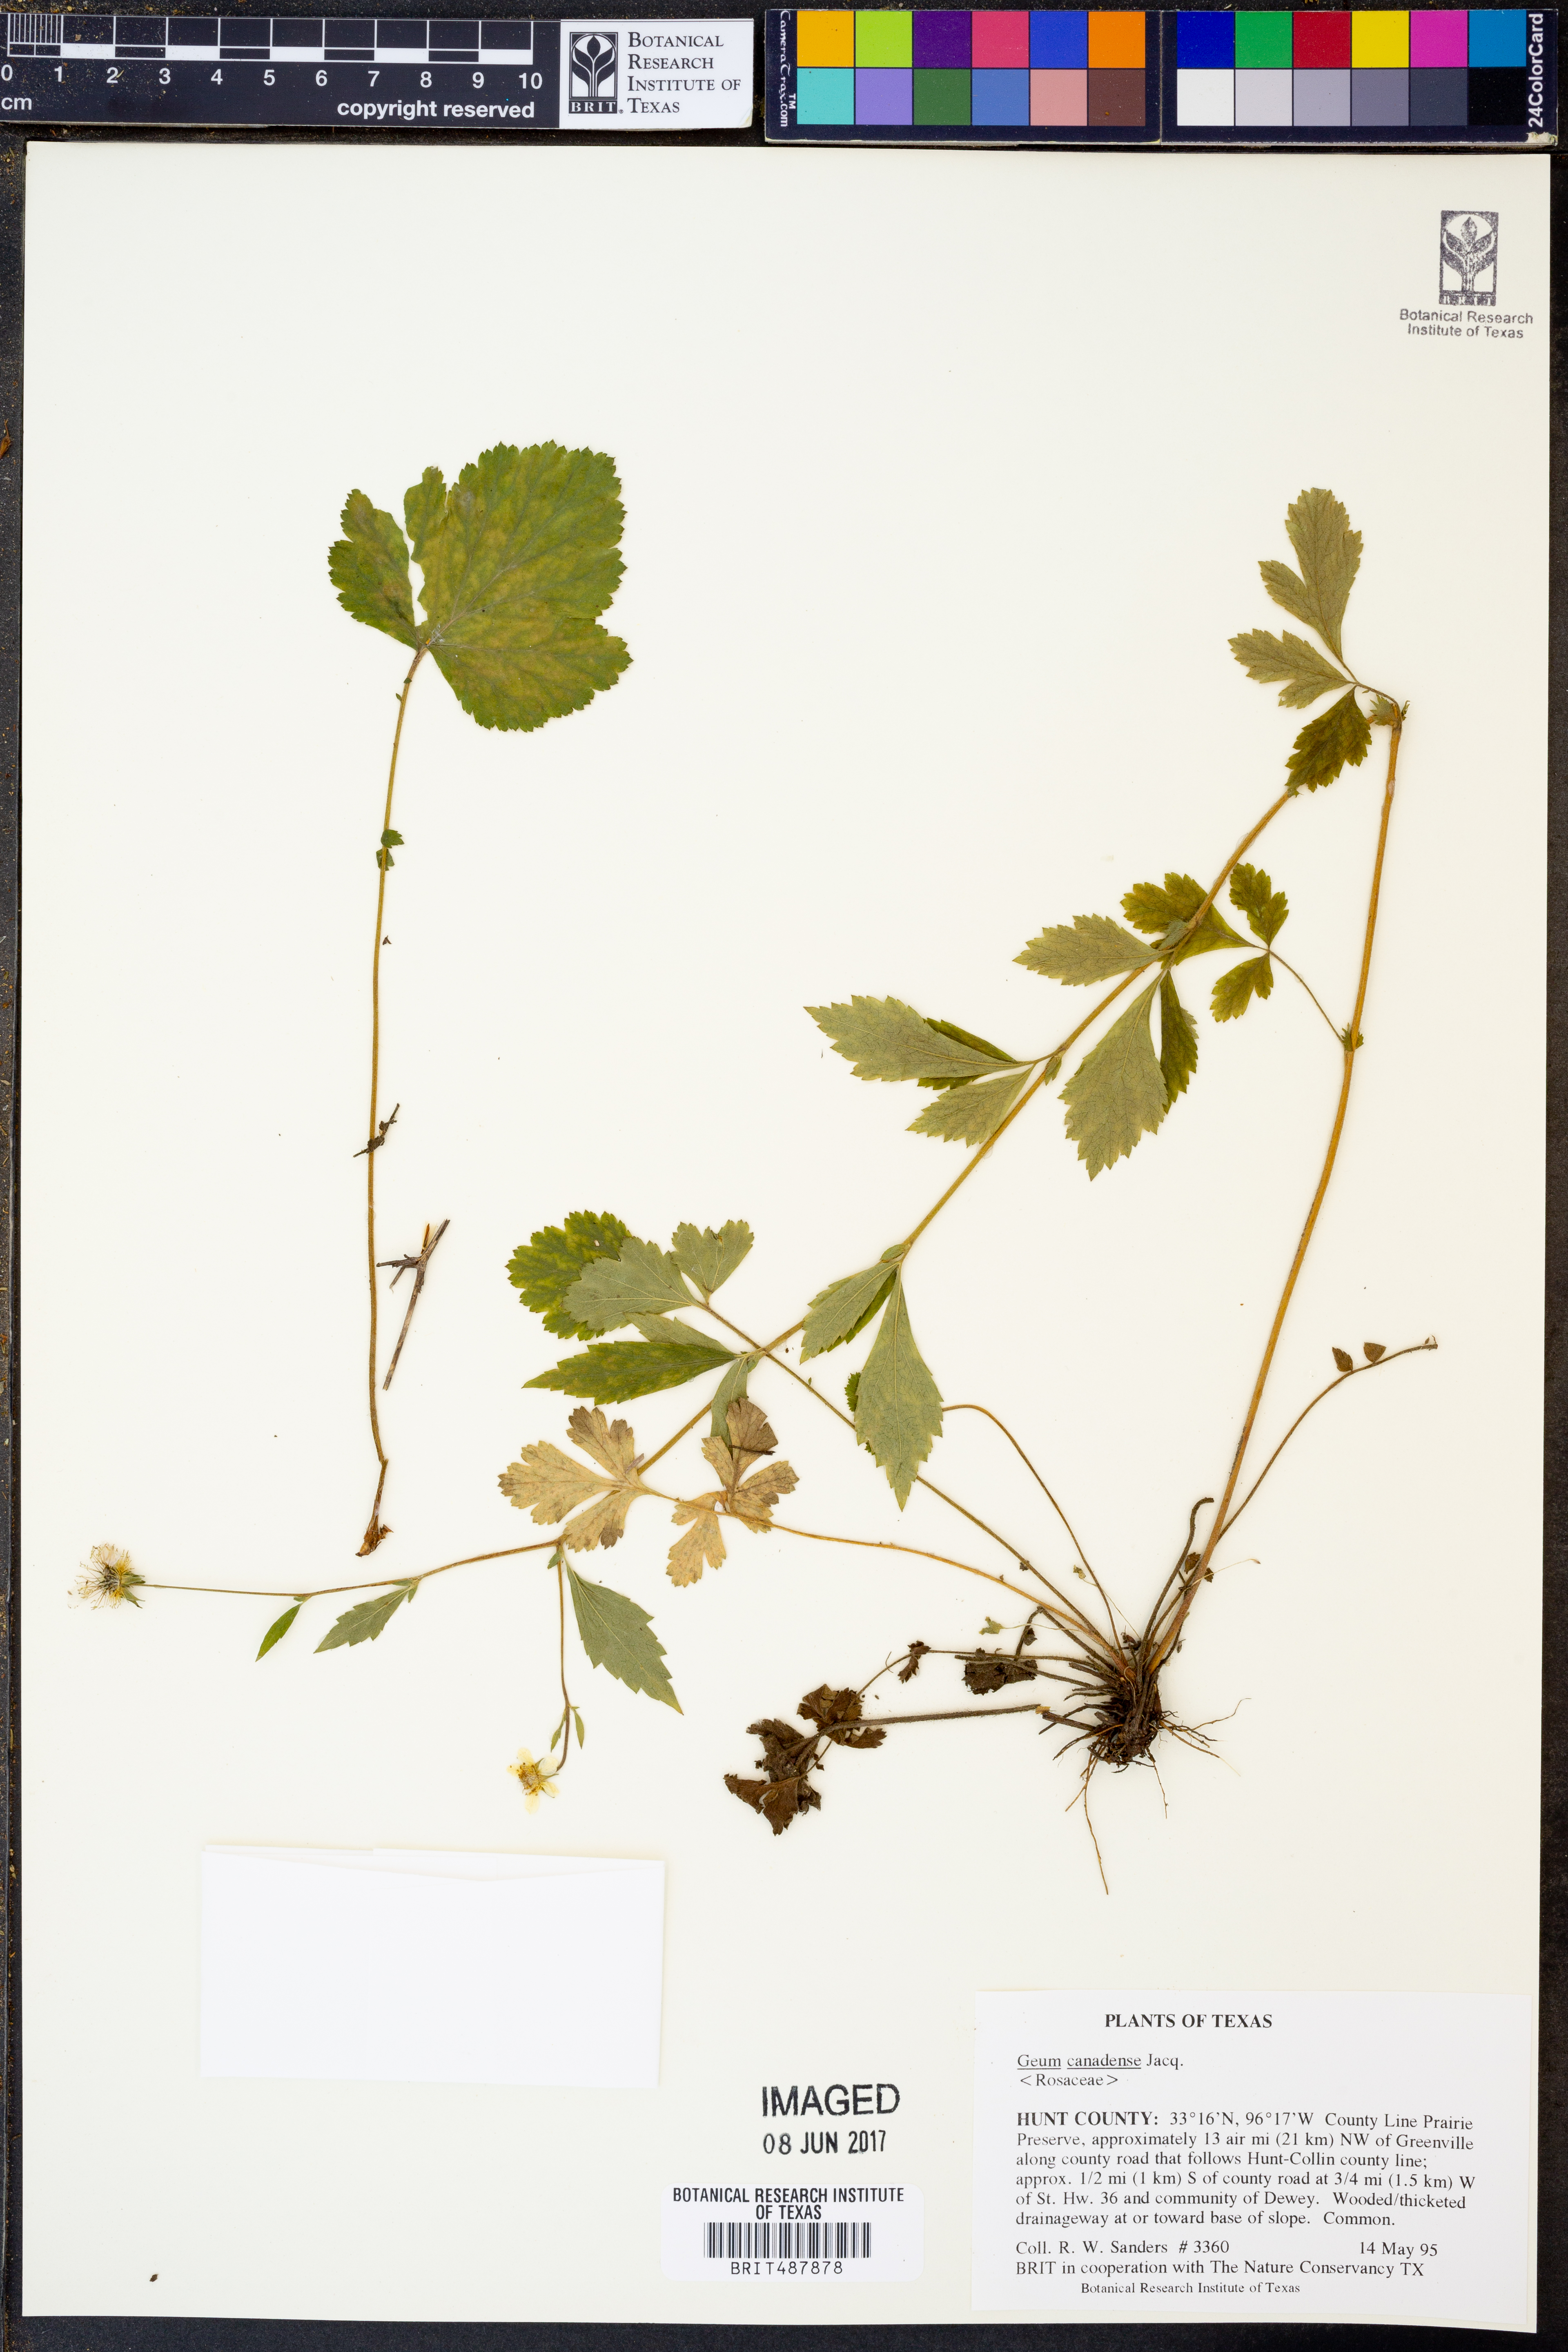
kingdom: Plantae
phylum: Tracheophyta
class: Magnoliopsida
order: Rosales
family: Rosaceae
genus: Geum
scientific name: Geum canadense
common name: White avens
